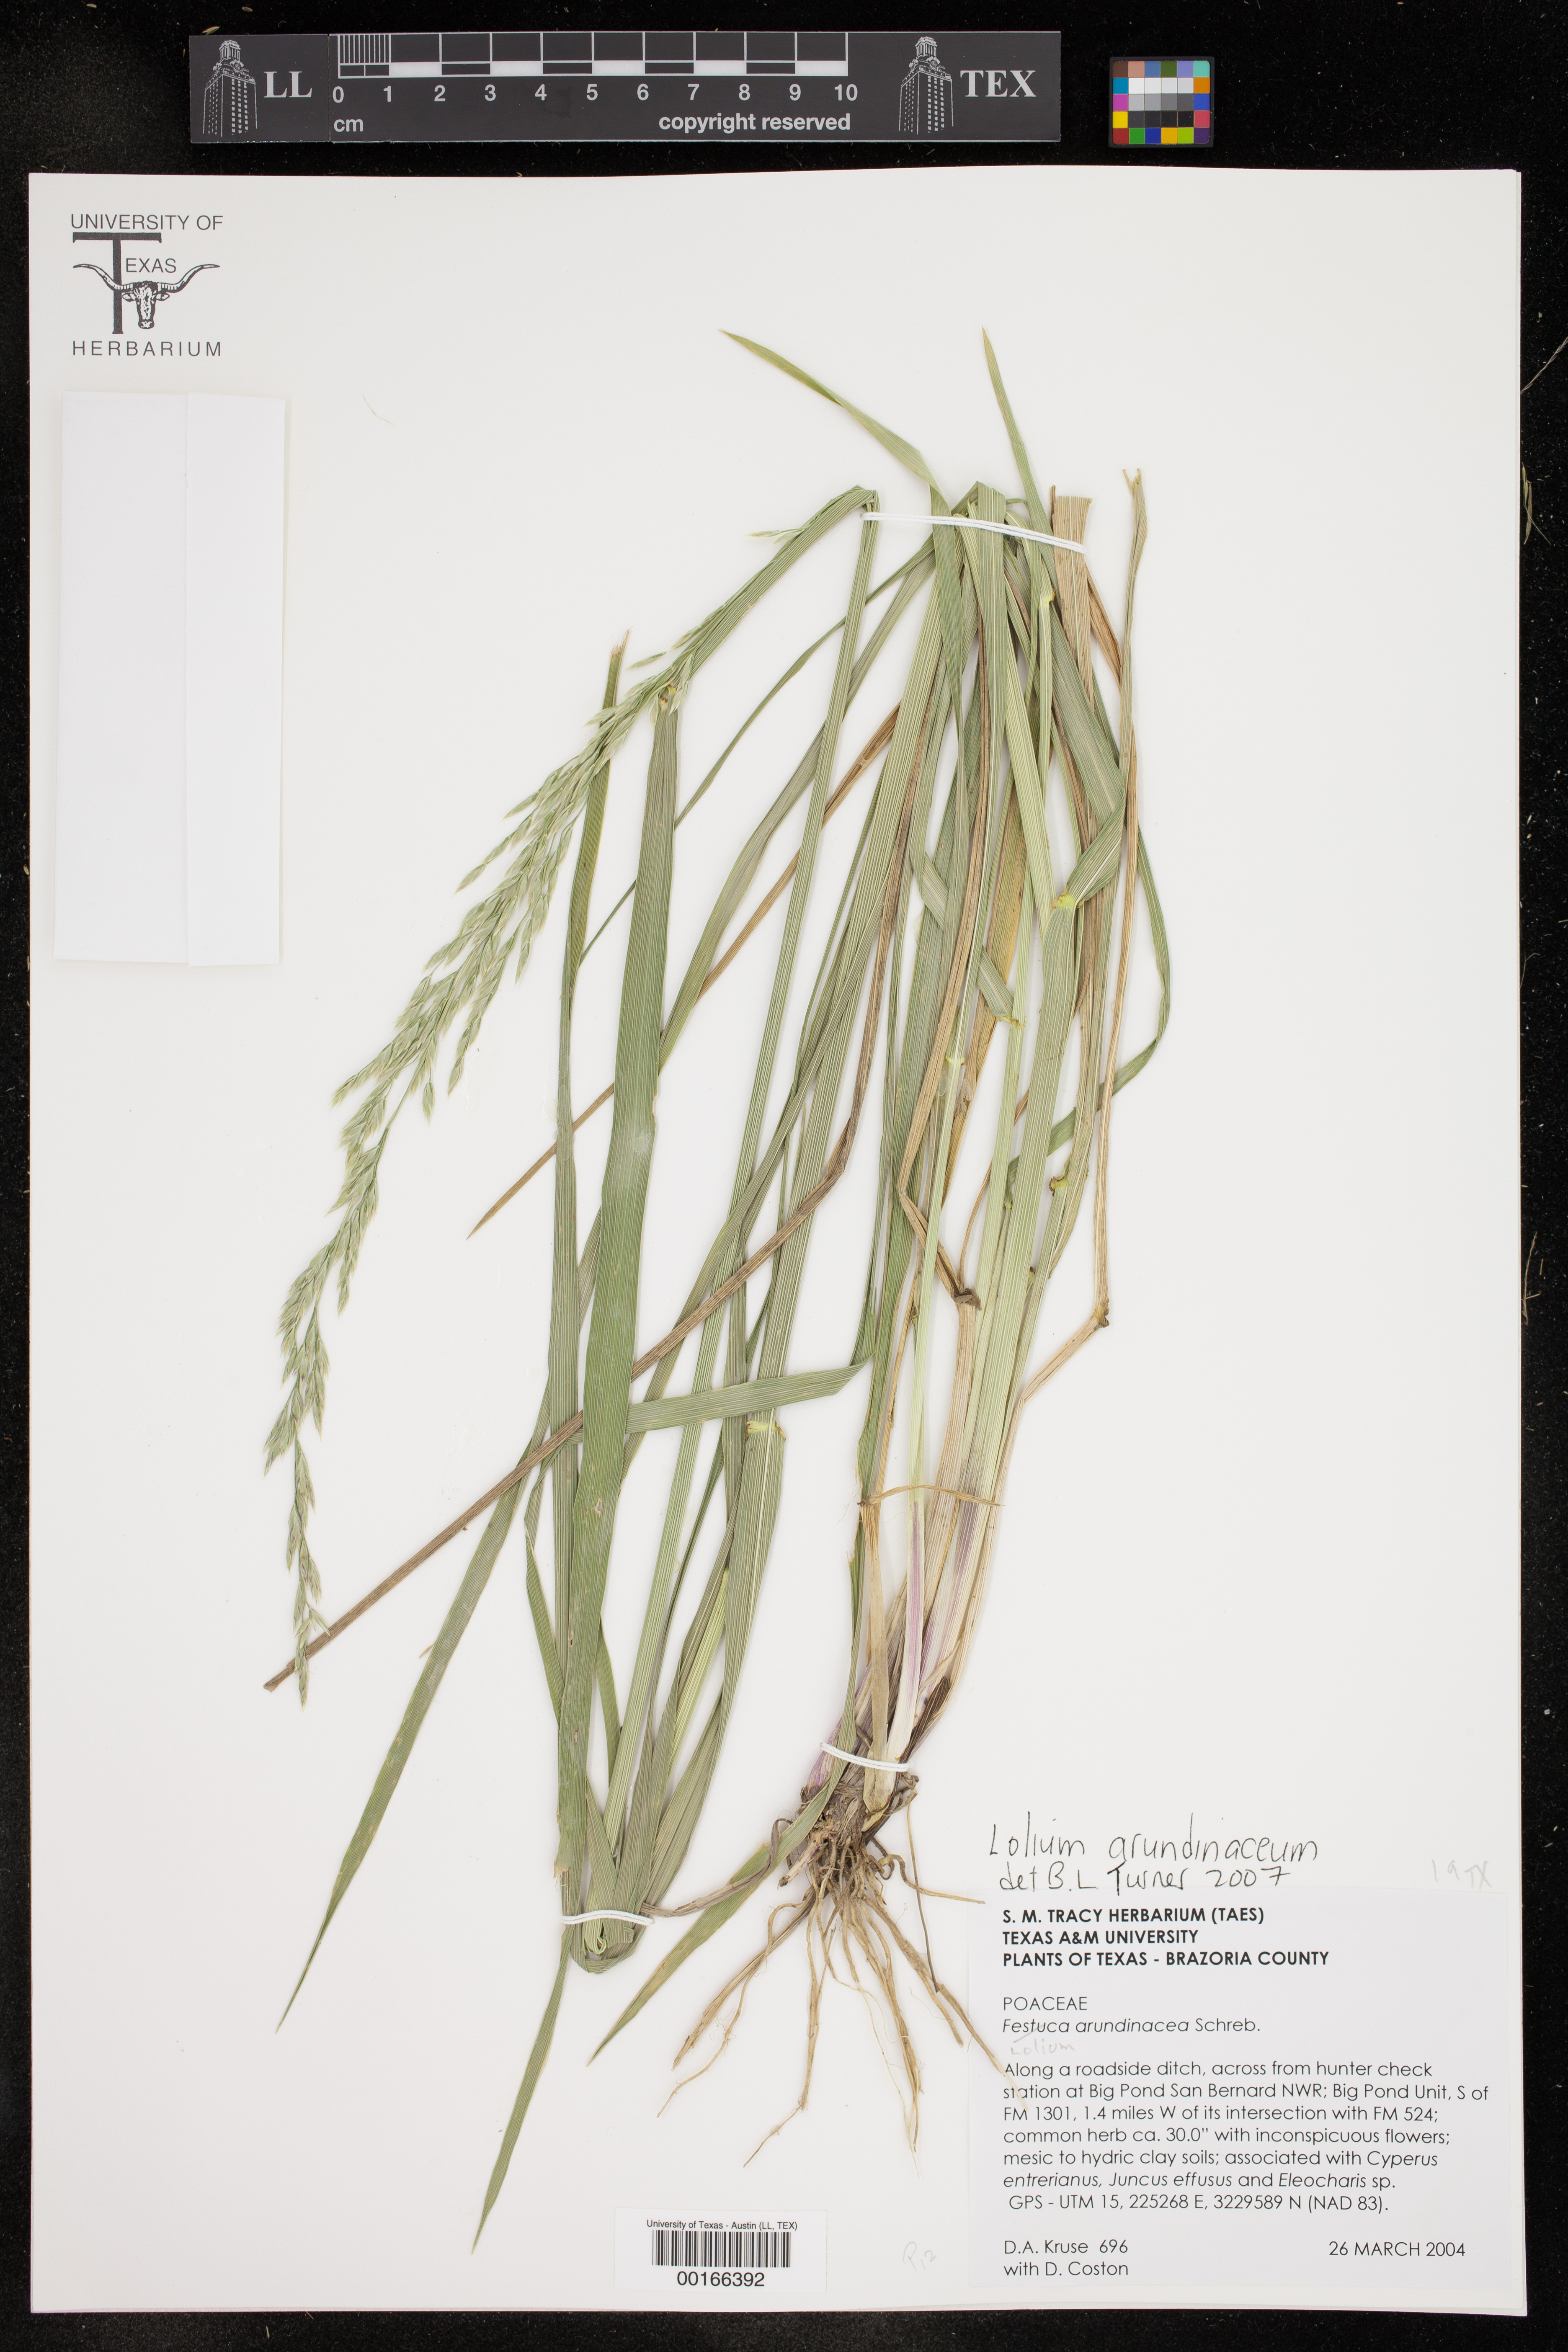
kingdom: Plantae
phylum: Tracheophyta
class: Liliopsida
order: Poales
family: Poaceae
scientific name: Poaceae
